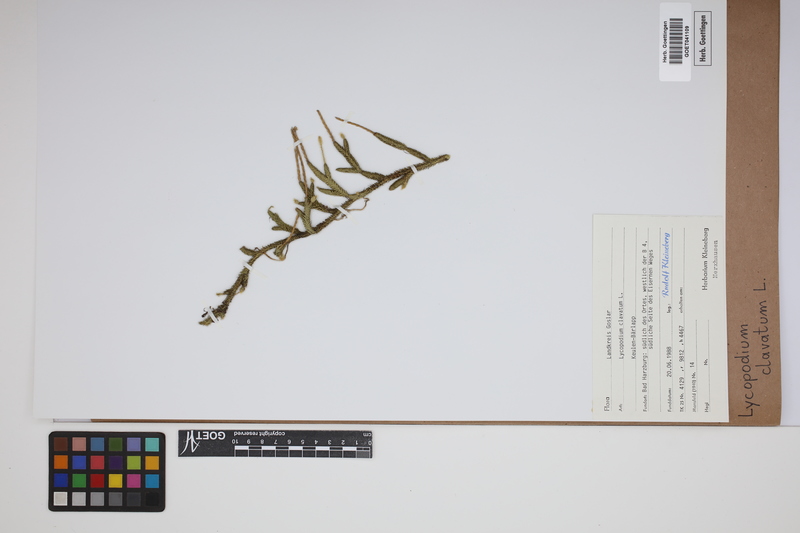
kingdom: Plantae
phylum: Tracheophyta
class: Lycopodiopsida
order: Lycopodiales
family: Lycopodiaceae
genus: Lycopodium
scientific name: Lycopodium clavatum
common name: Stag's-horn clubmoss
